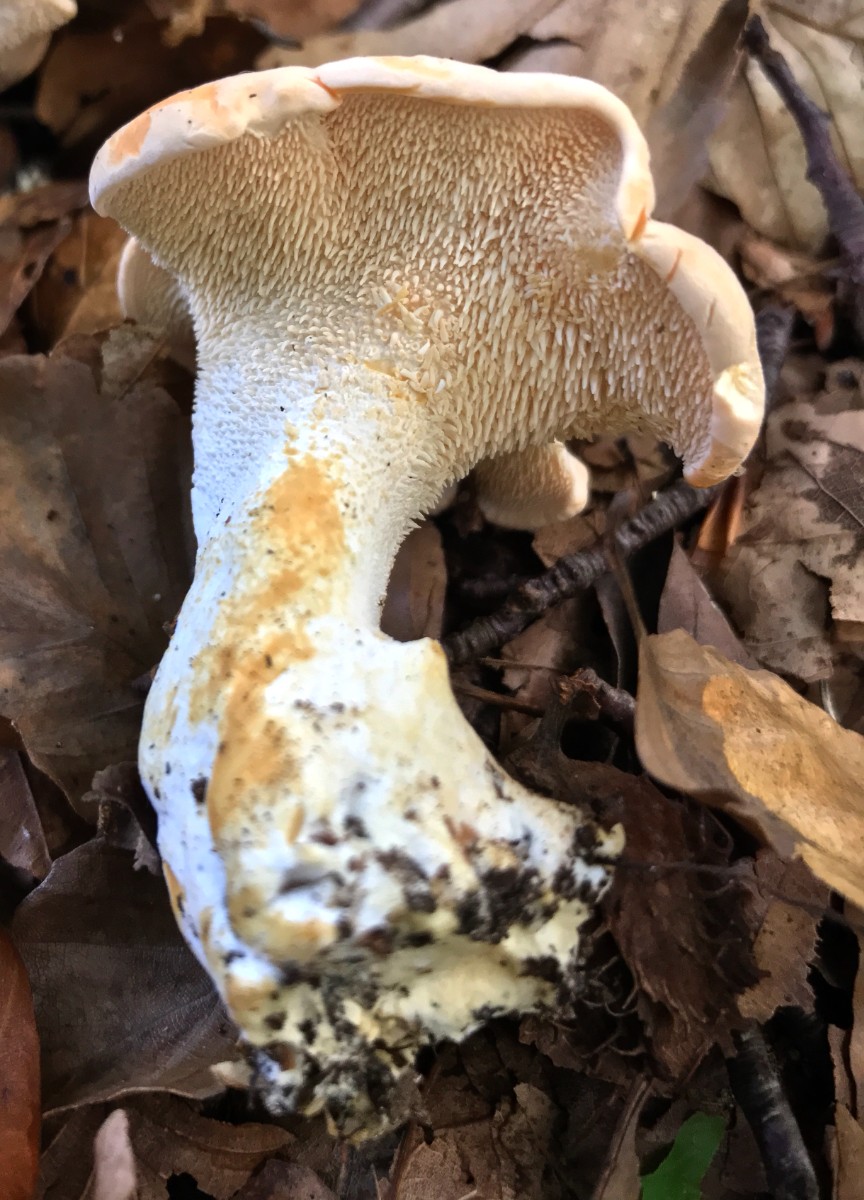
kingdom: Fungi
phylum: Basidiomycota
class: Agaricomycetes
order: Cantharellales
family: Hydnaceae
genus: Hydnum
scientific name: Hydnum
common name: pigsvamp
